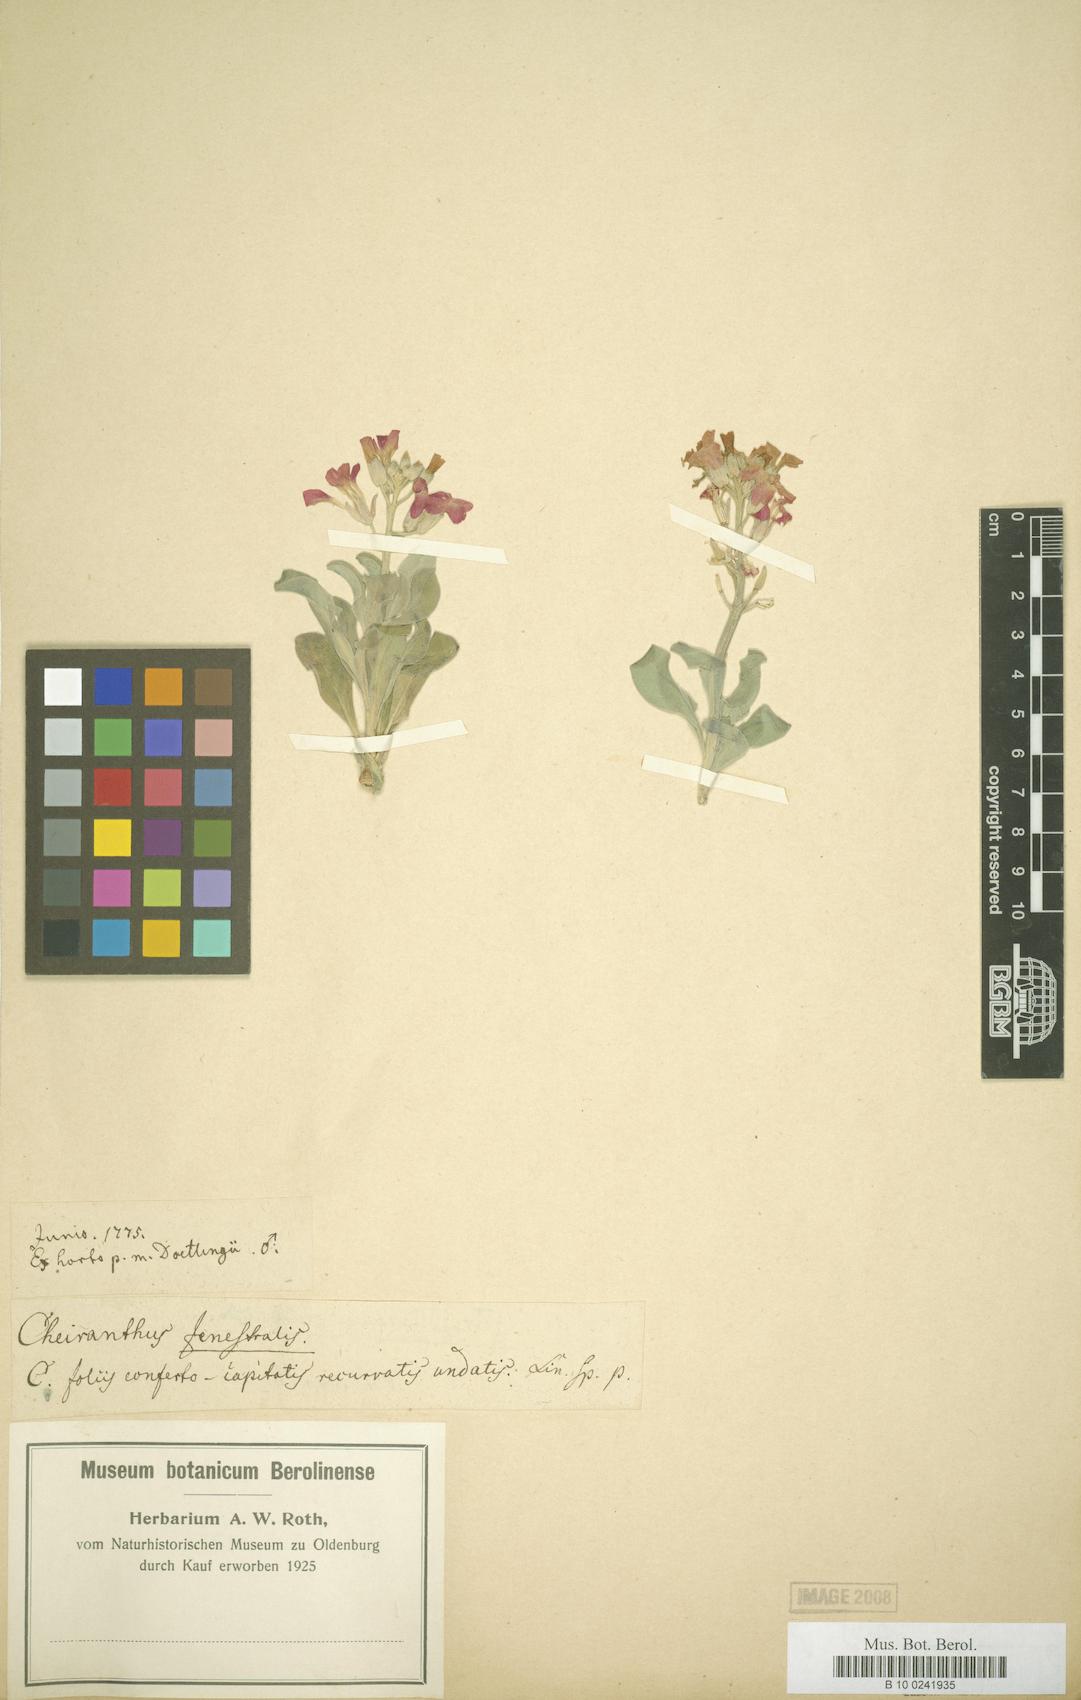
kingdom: Plantae
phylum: Tracheophyta
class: Magnoliopsida
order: Brassicales
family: Brassicaceae
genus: Matthiola
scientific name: Matthiola incana
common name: Hoary stock
